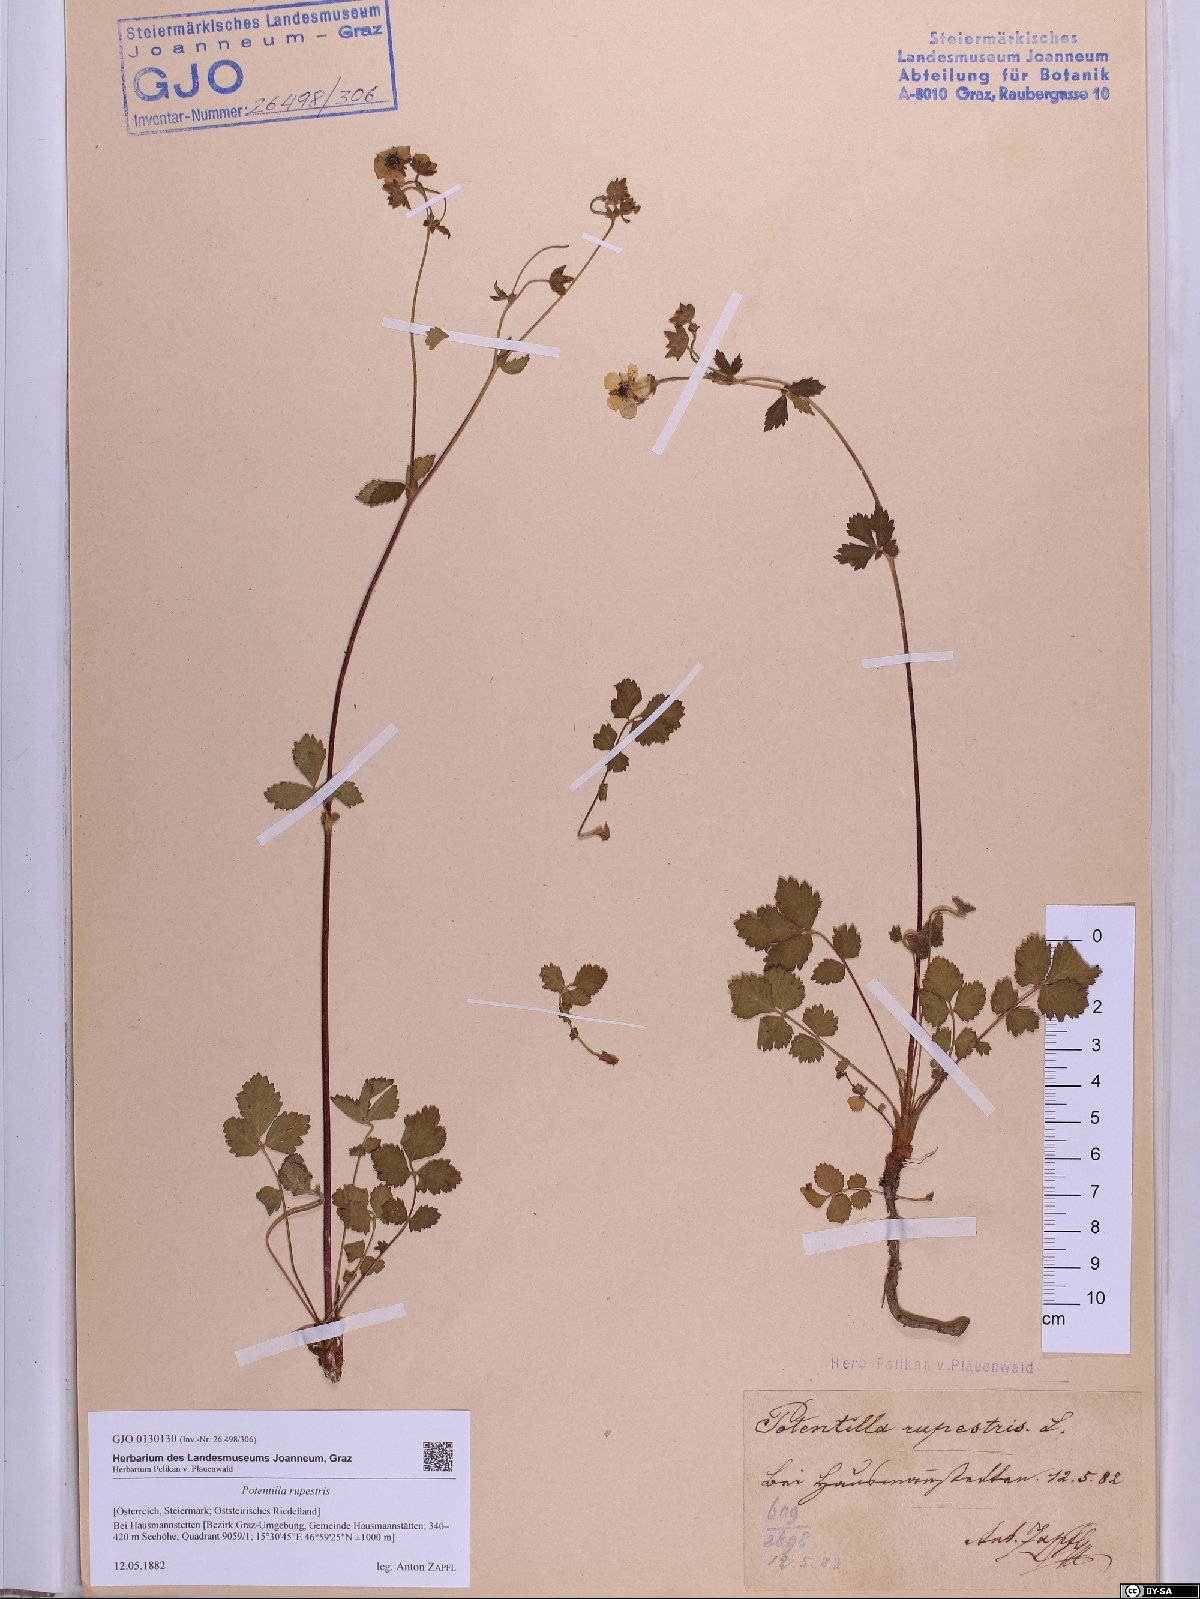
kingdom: Plantae
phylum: Tracheophyta
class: Magnoliopsida
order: Rosales
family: Rosaceae
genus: Drymocallis
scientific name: Drymocallis rupestris
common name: Rock cinquefoil
